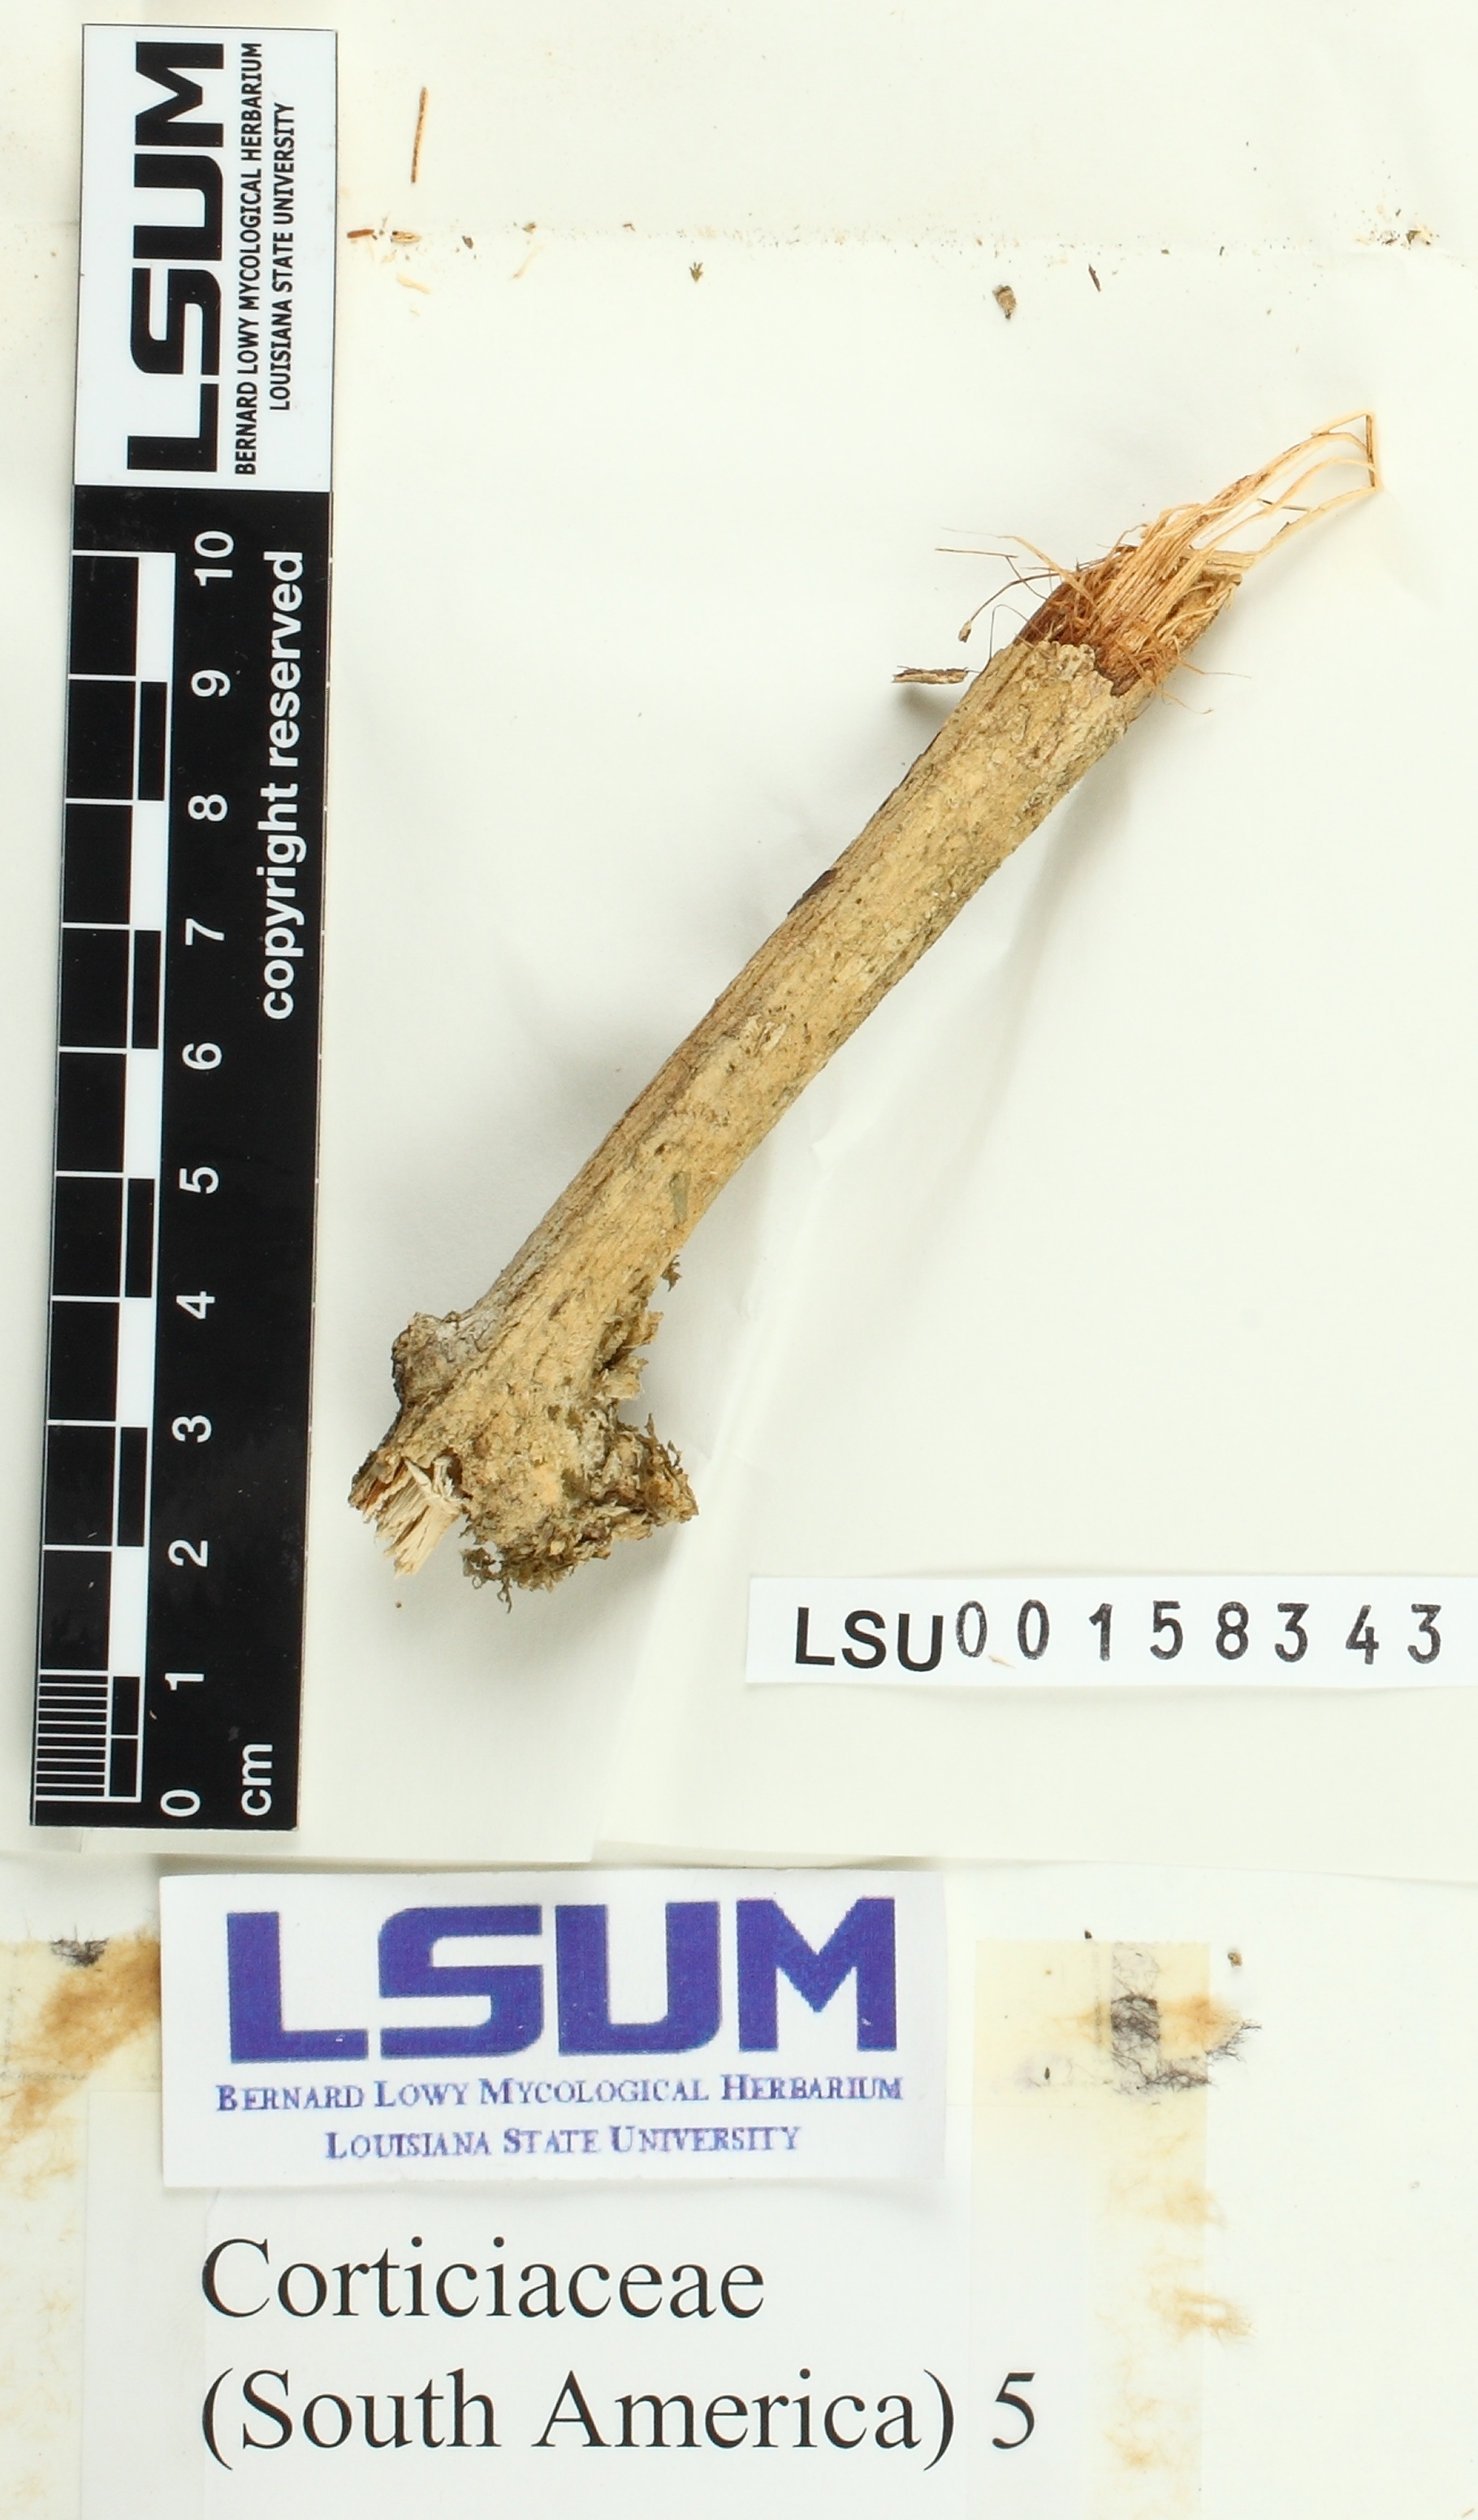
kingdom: Fungi
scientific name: Fungi
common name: Fungi
